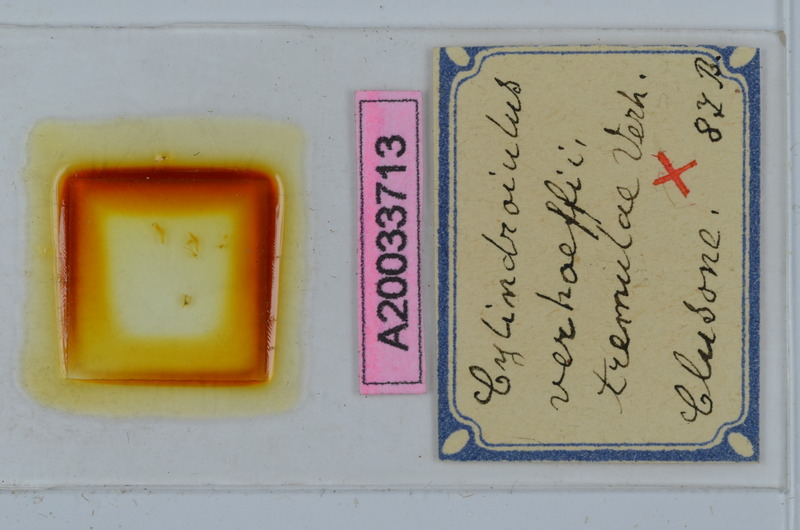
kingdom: Animalia
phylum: Arthropoda
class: Diplopoda
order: Julida
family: Julidae
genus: Cylindroiulus
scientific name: Cylindroiulus verhoeffi
